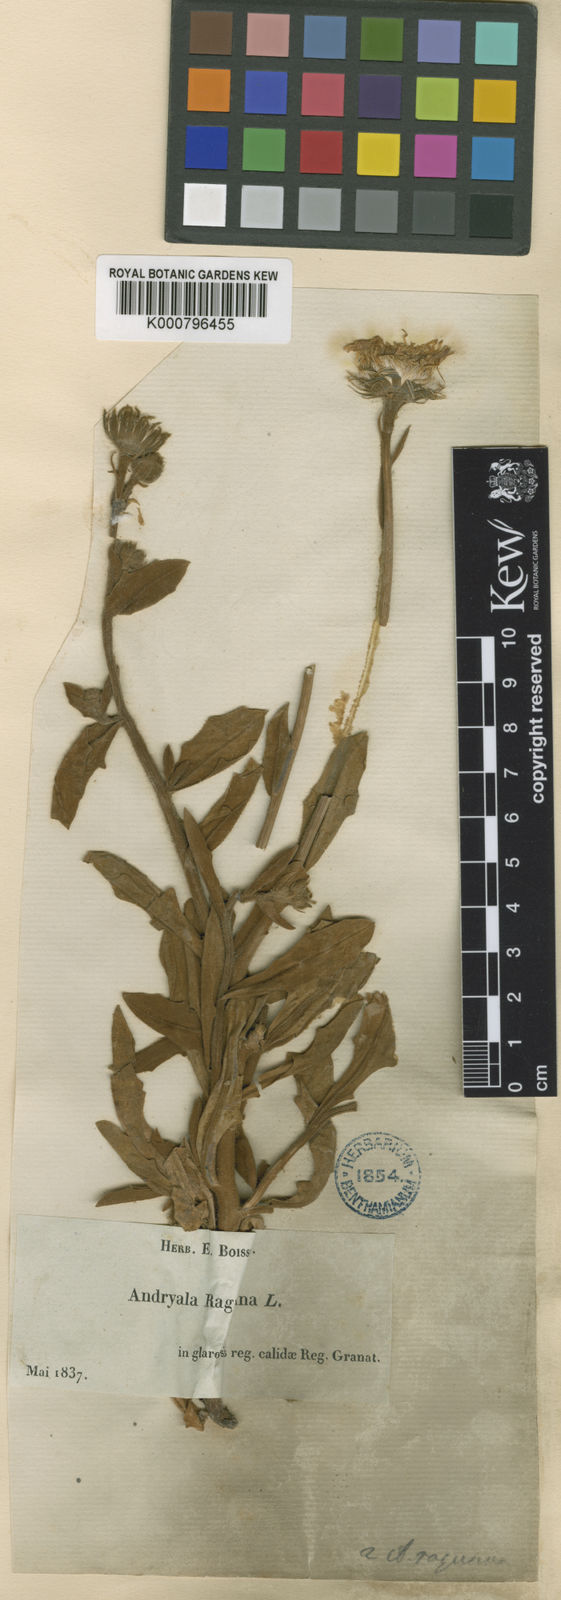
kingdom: Plantae
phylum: Tracheophyta
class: Magnoliopsida
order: Asterales
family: Asteraceae
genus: Andryala
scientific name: Andryala ragusina
